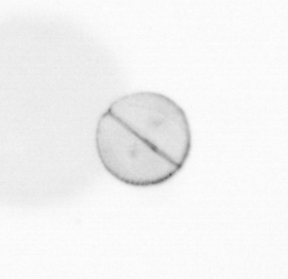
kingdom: Chromista
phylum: Ochrophyta
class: Bacillariophyceae
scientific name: Bacillariophyceae
